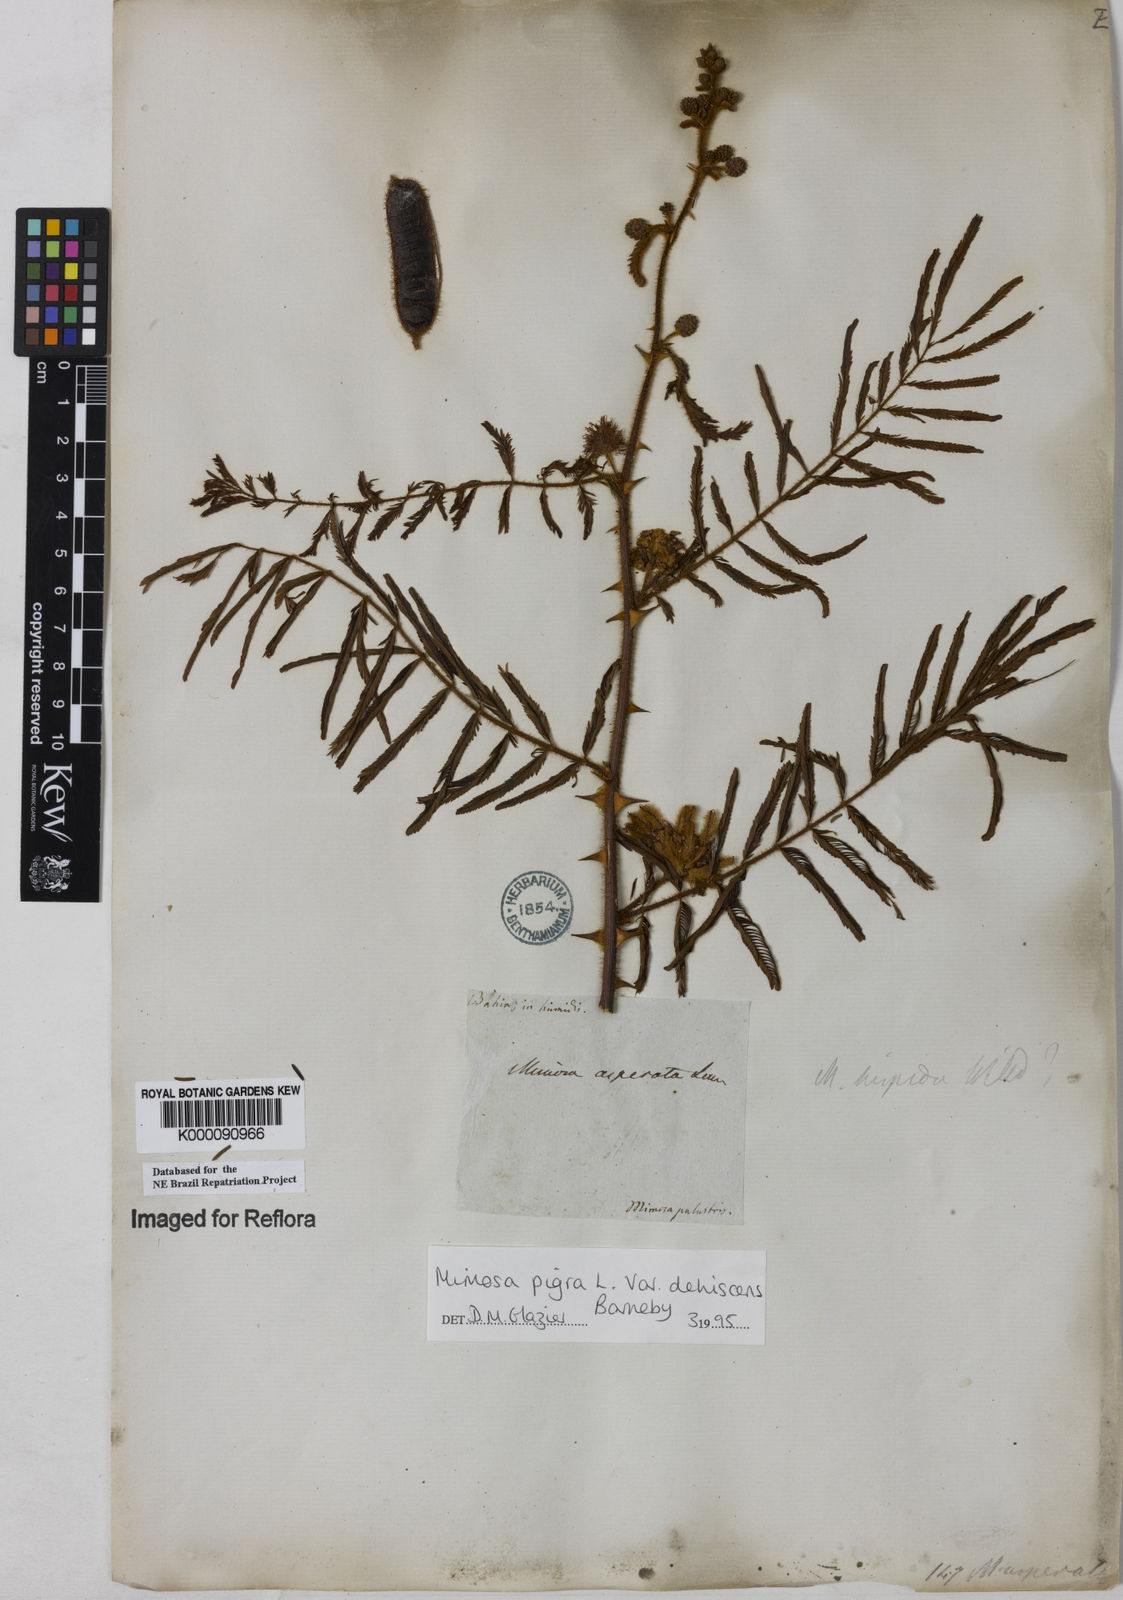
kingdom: Plantae
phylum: Tracheophyta
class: Magnoliopsida
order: Fabales
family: Fabaceae
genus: Mimosa
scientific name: Mimosa pigra
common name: Black mimosa
